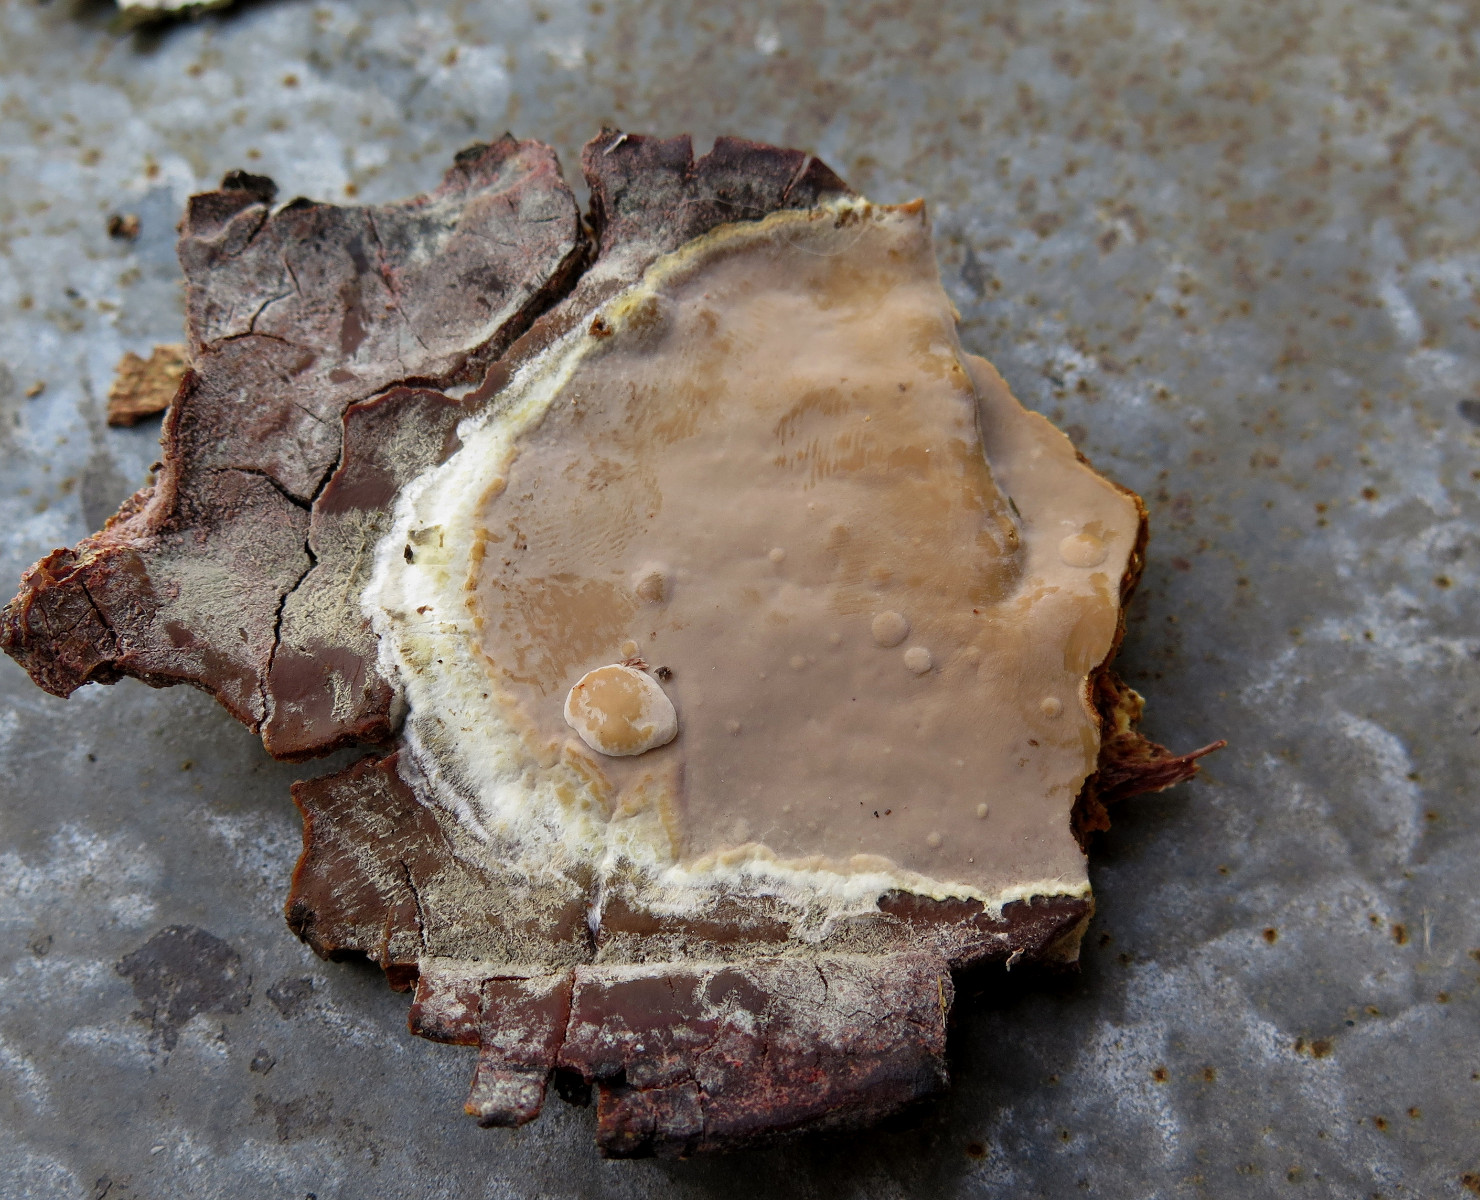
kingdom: Fungi
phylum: Basidiomycota
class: Agaricomycetes
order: Russulales
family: Peniophoraceae
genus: Scytinostroma
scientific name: Scytinostroma hemidichophyticum
